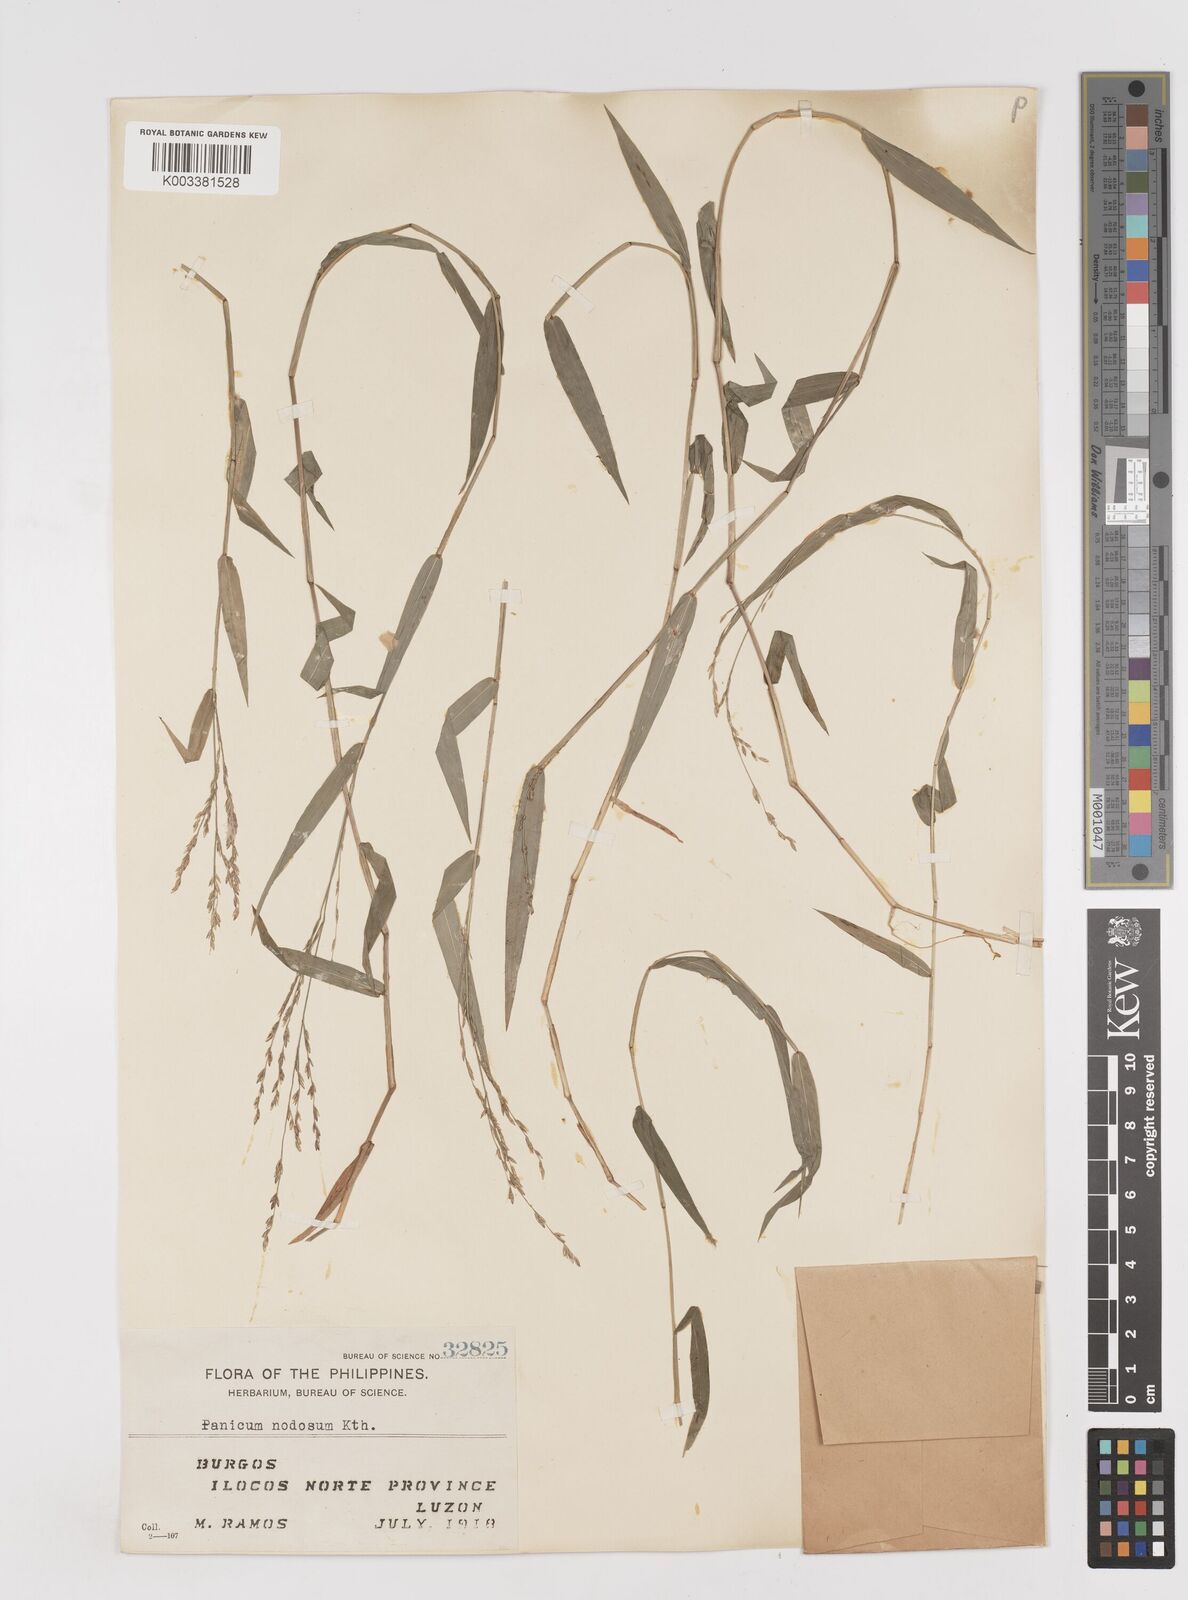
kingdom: Plantae
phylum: Tracheophyta
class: Liliopsida
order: Poales
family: Poaceae
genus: Ottochloa
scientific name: Ottochloa nodosa
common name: Slender-panic grass
